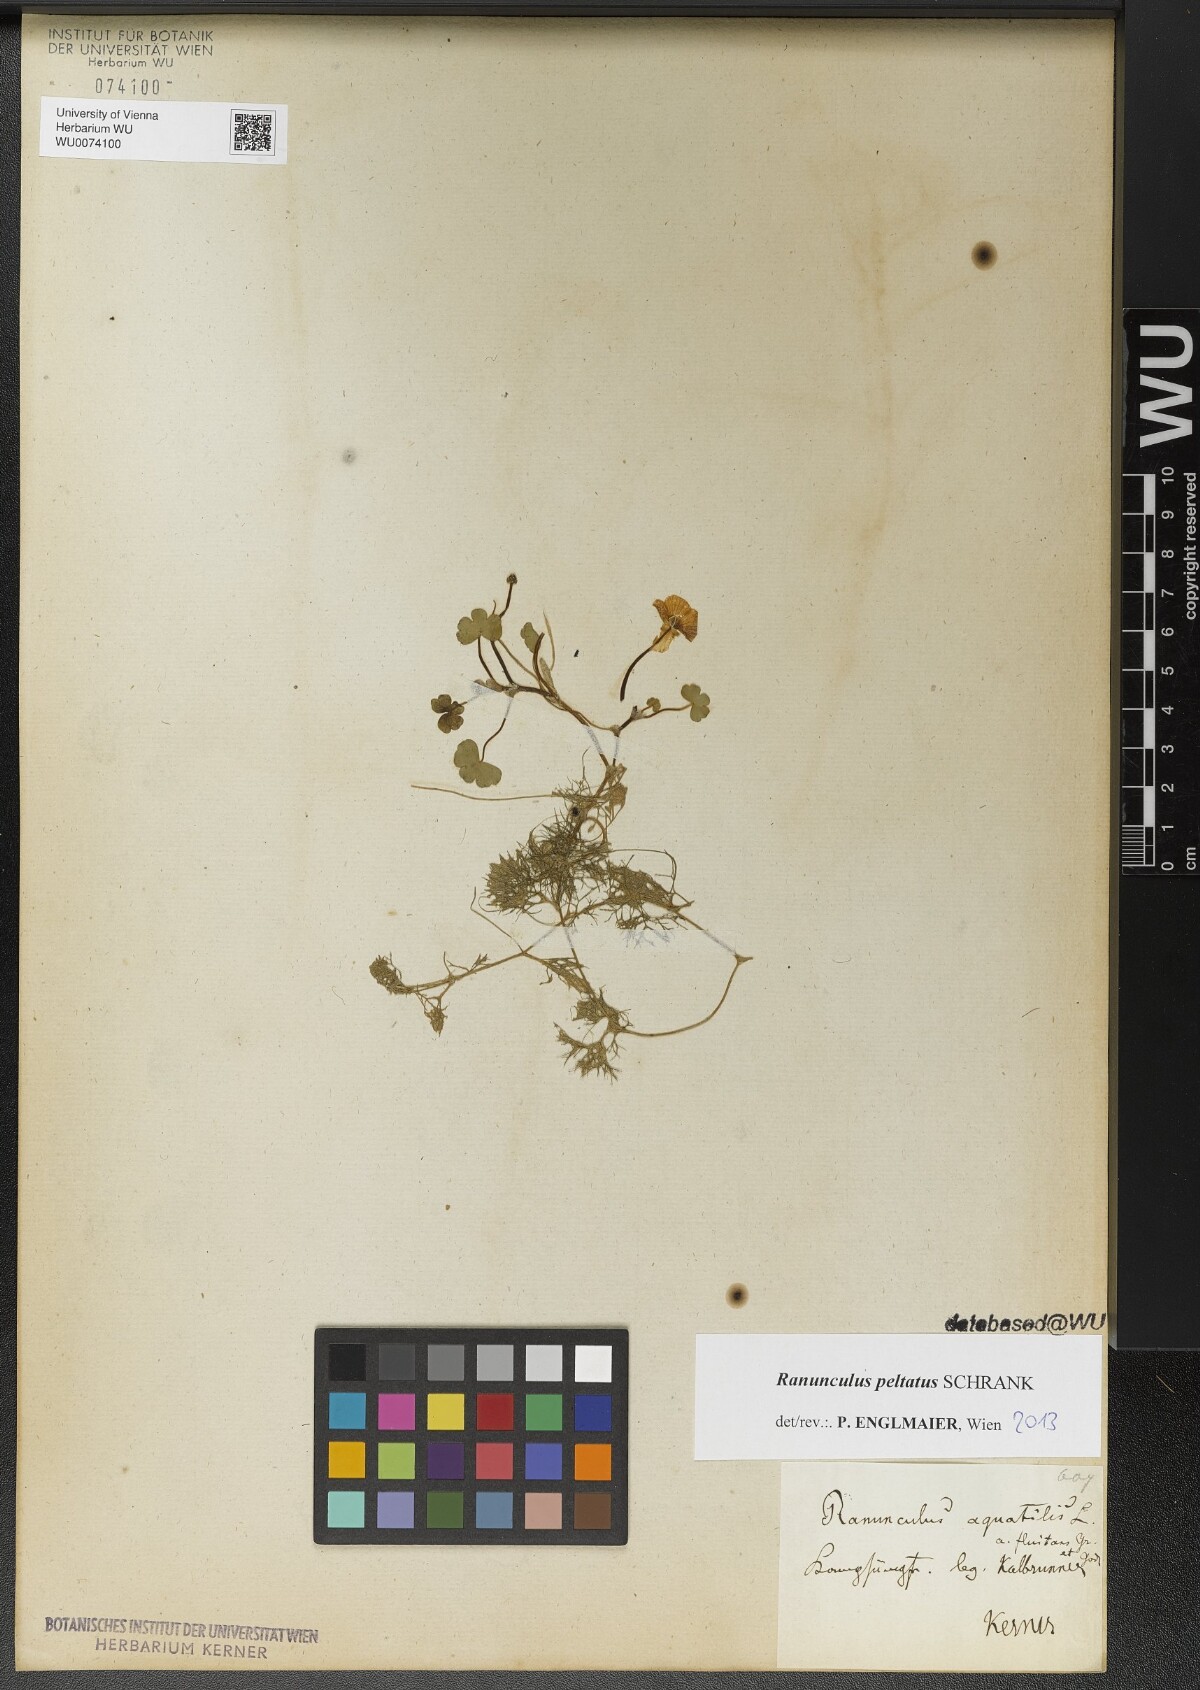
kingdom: Plantae
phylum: Tracheophyta
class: Magnoliopsida
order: Ranunculales
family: Ranunculaceae
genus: Ranunculus
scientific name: Ranunculus peltatus
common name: Pond water-crowfoot
